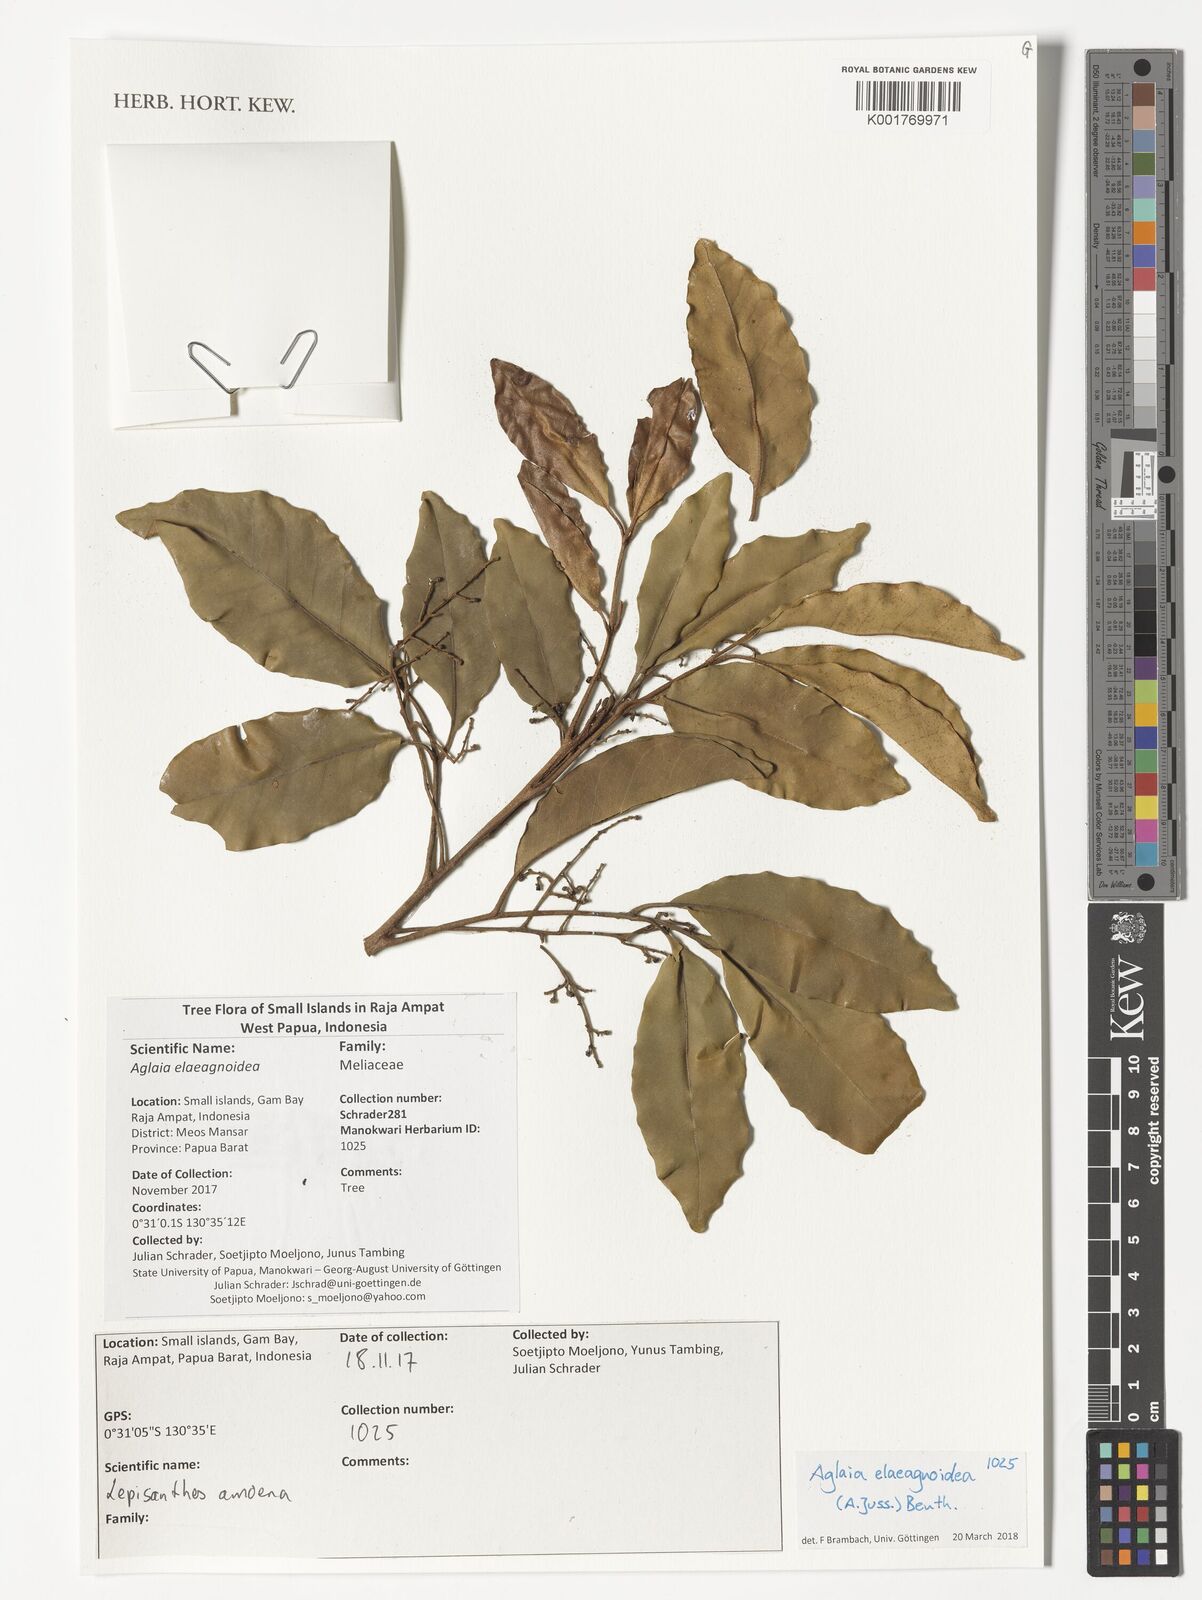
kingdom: Plantae
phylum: Tracheophyta
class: Magnoliopsida
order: Sapindales
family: Meliaceae
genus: Aglaia
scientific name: Aglaia elaeagnoidea
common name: Droopyleaf
